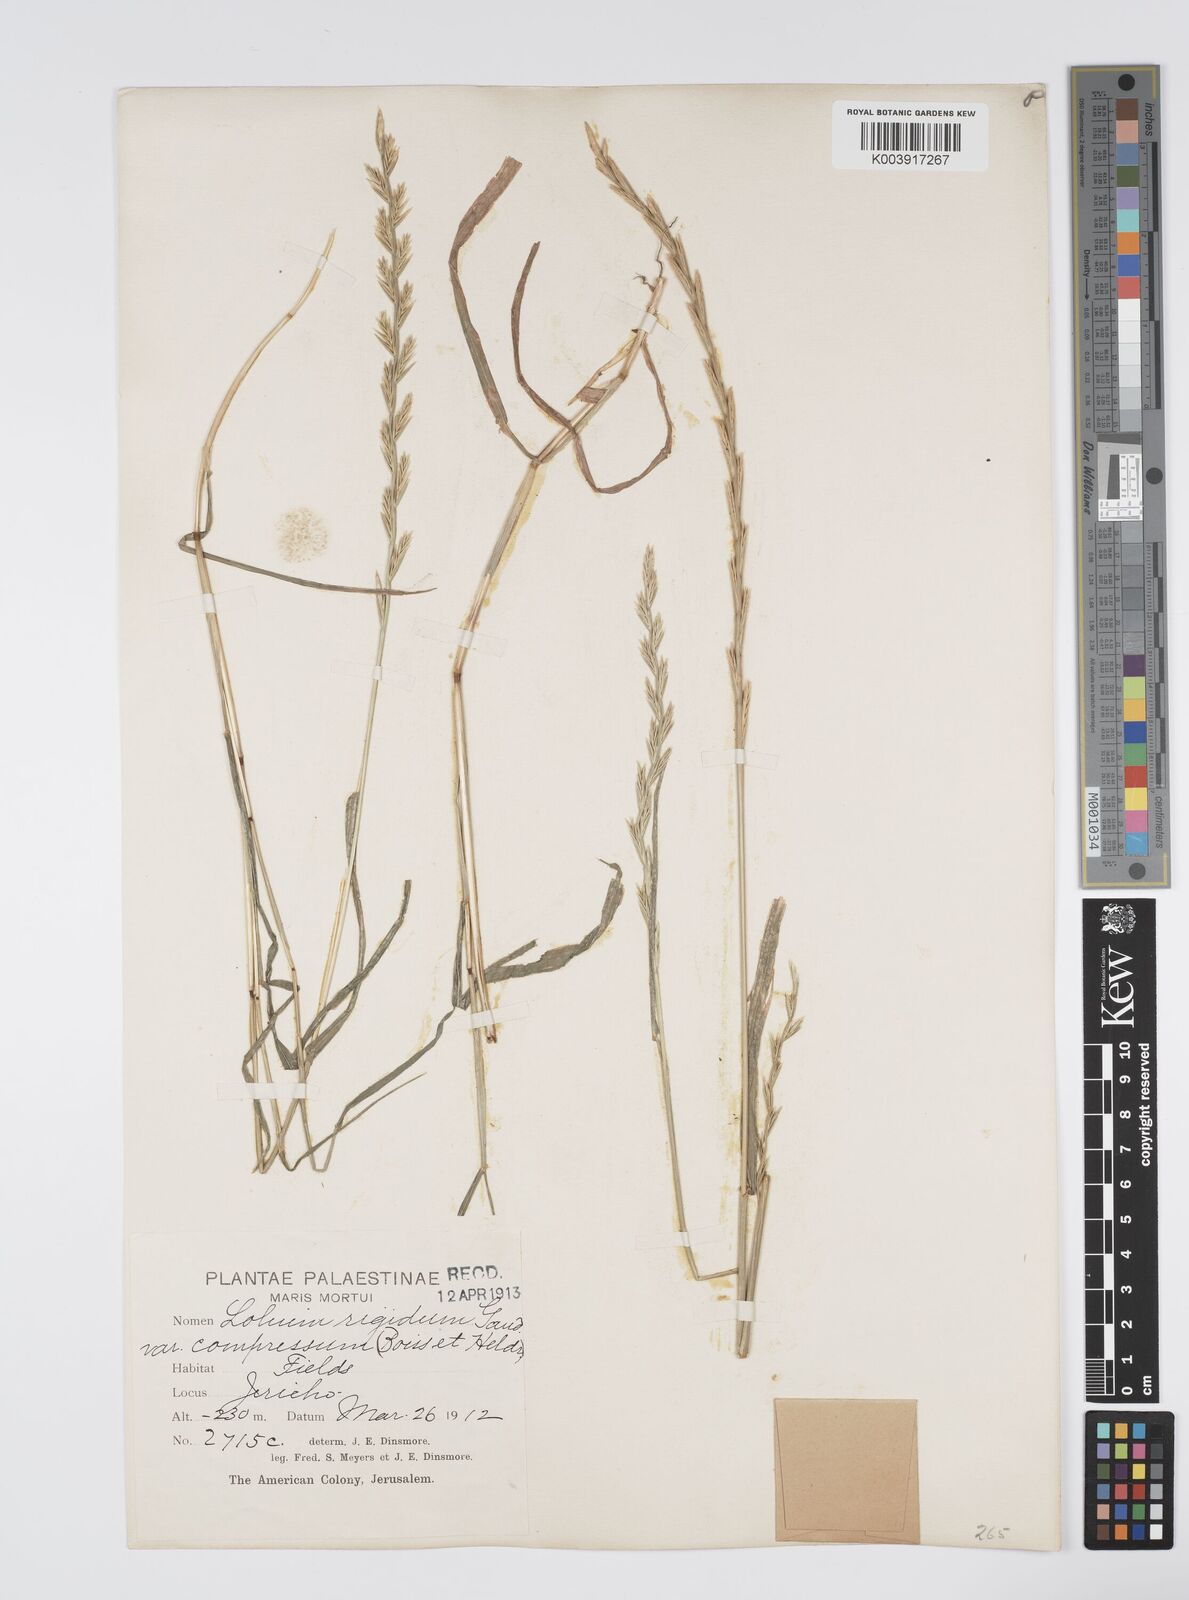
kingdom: Plantae
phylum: Tracheophyta
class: Liliopsida
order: Poales
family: Poaceae
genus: Lolium
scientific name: Lolium rigidum
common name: Wimmera ryegrass
